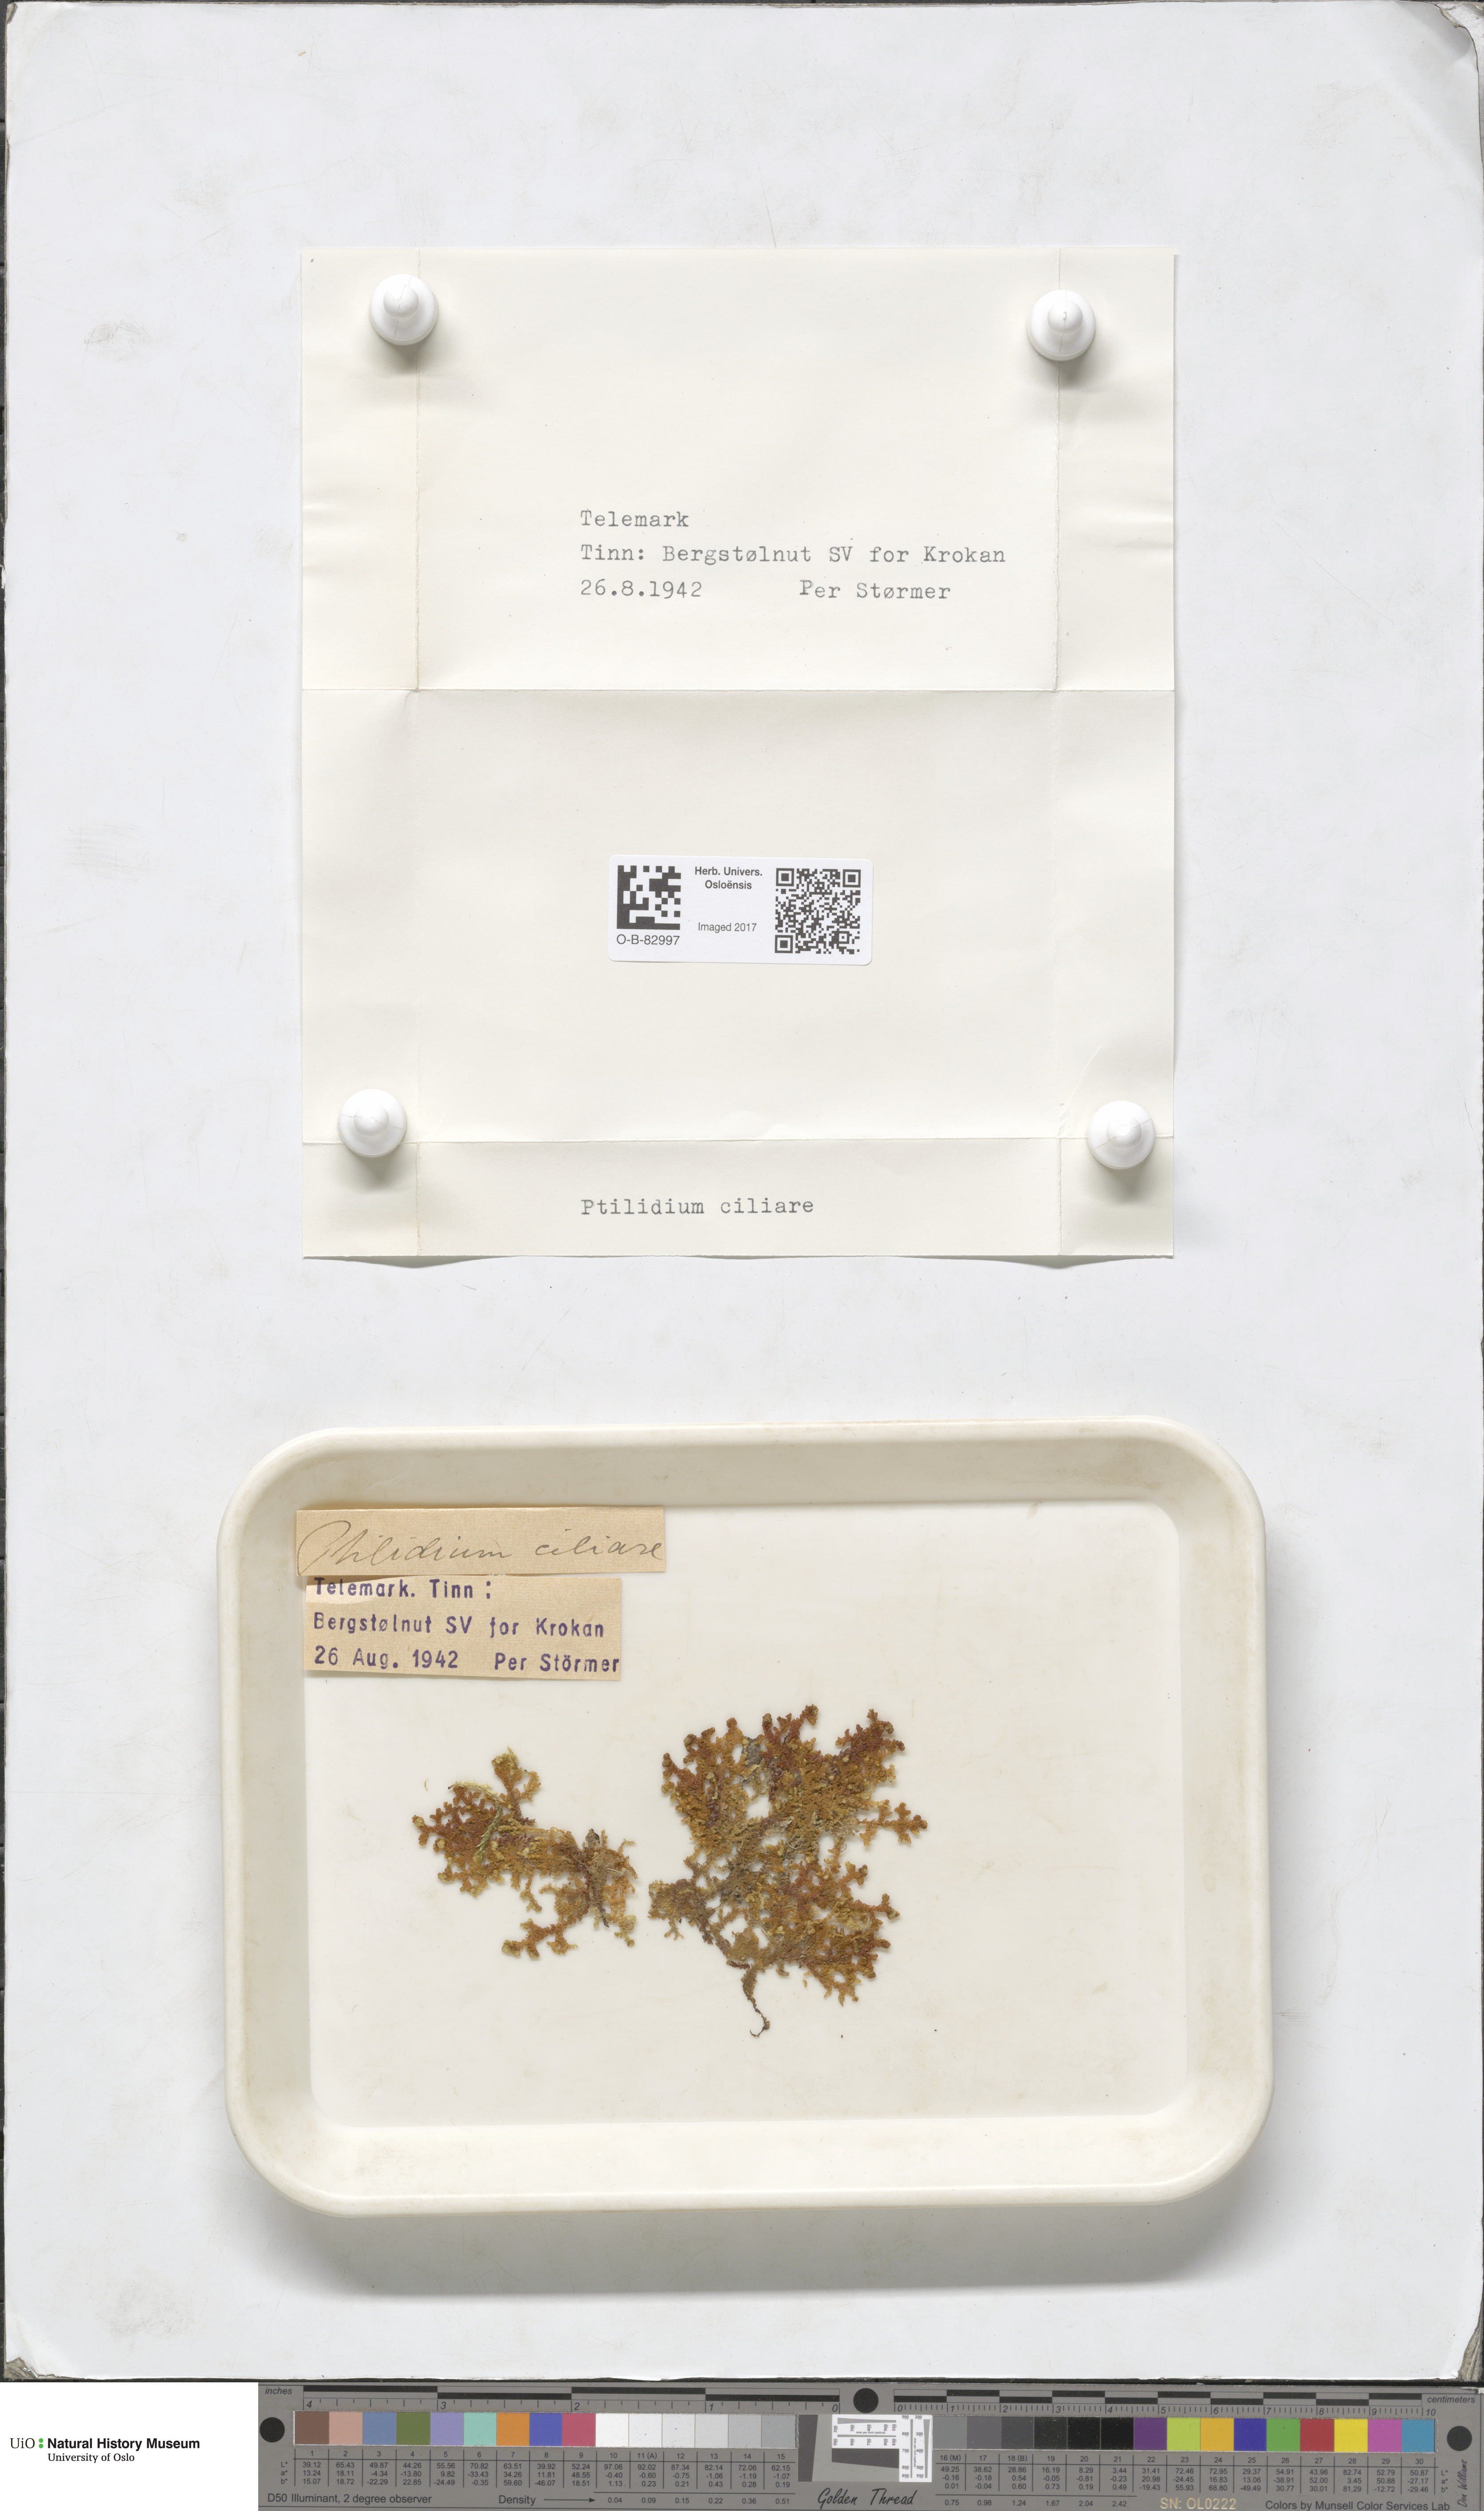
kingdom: Plantae
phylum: Marchantiophyta
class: Jungermanniopsida
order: Ptilidiales
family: Ptilidiaceae
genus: Ptilidium
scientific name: Ptilidium ciliare
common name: Ciliate fringewort
